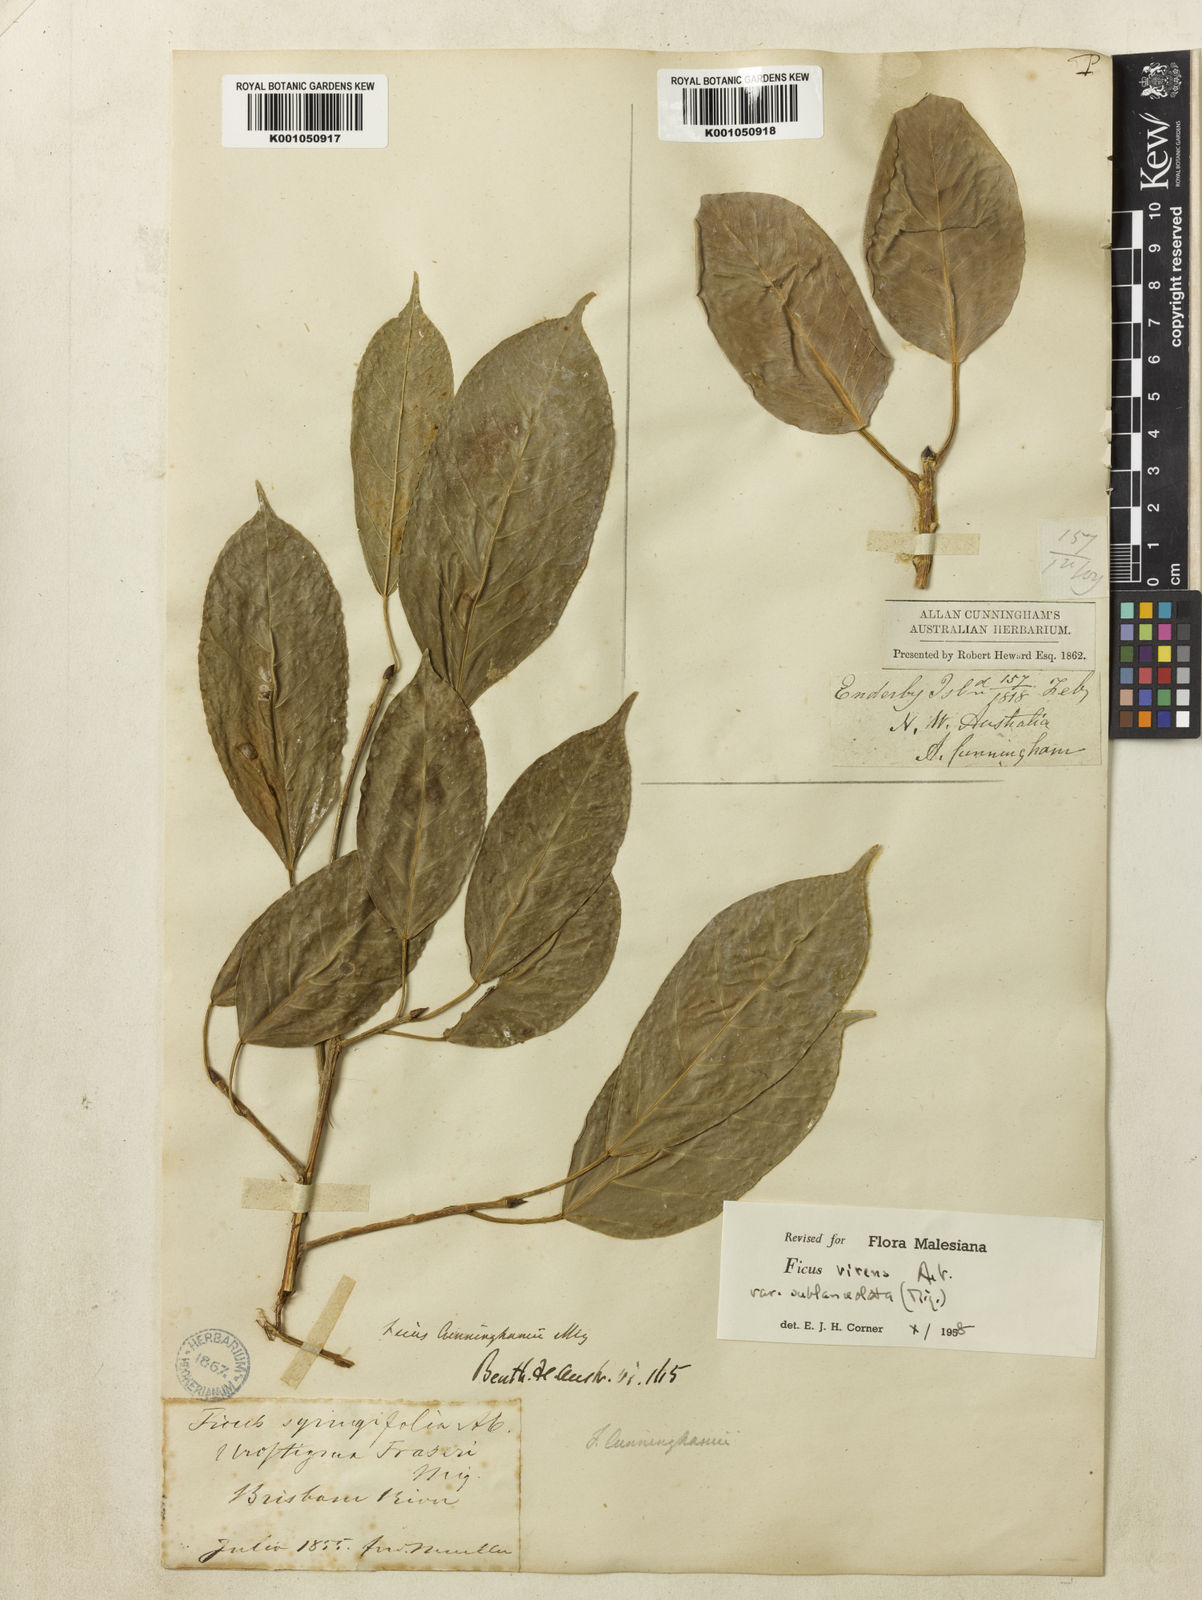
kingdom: Plantae
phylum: Tracheophyta
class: Magnoliopsida
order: Rosales
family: Moraceae
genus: Ficus
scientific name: Ficus virens
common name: Spotted fig
